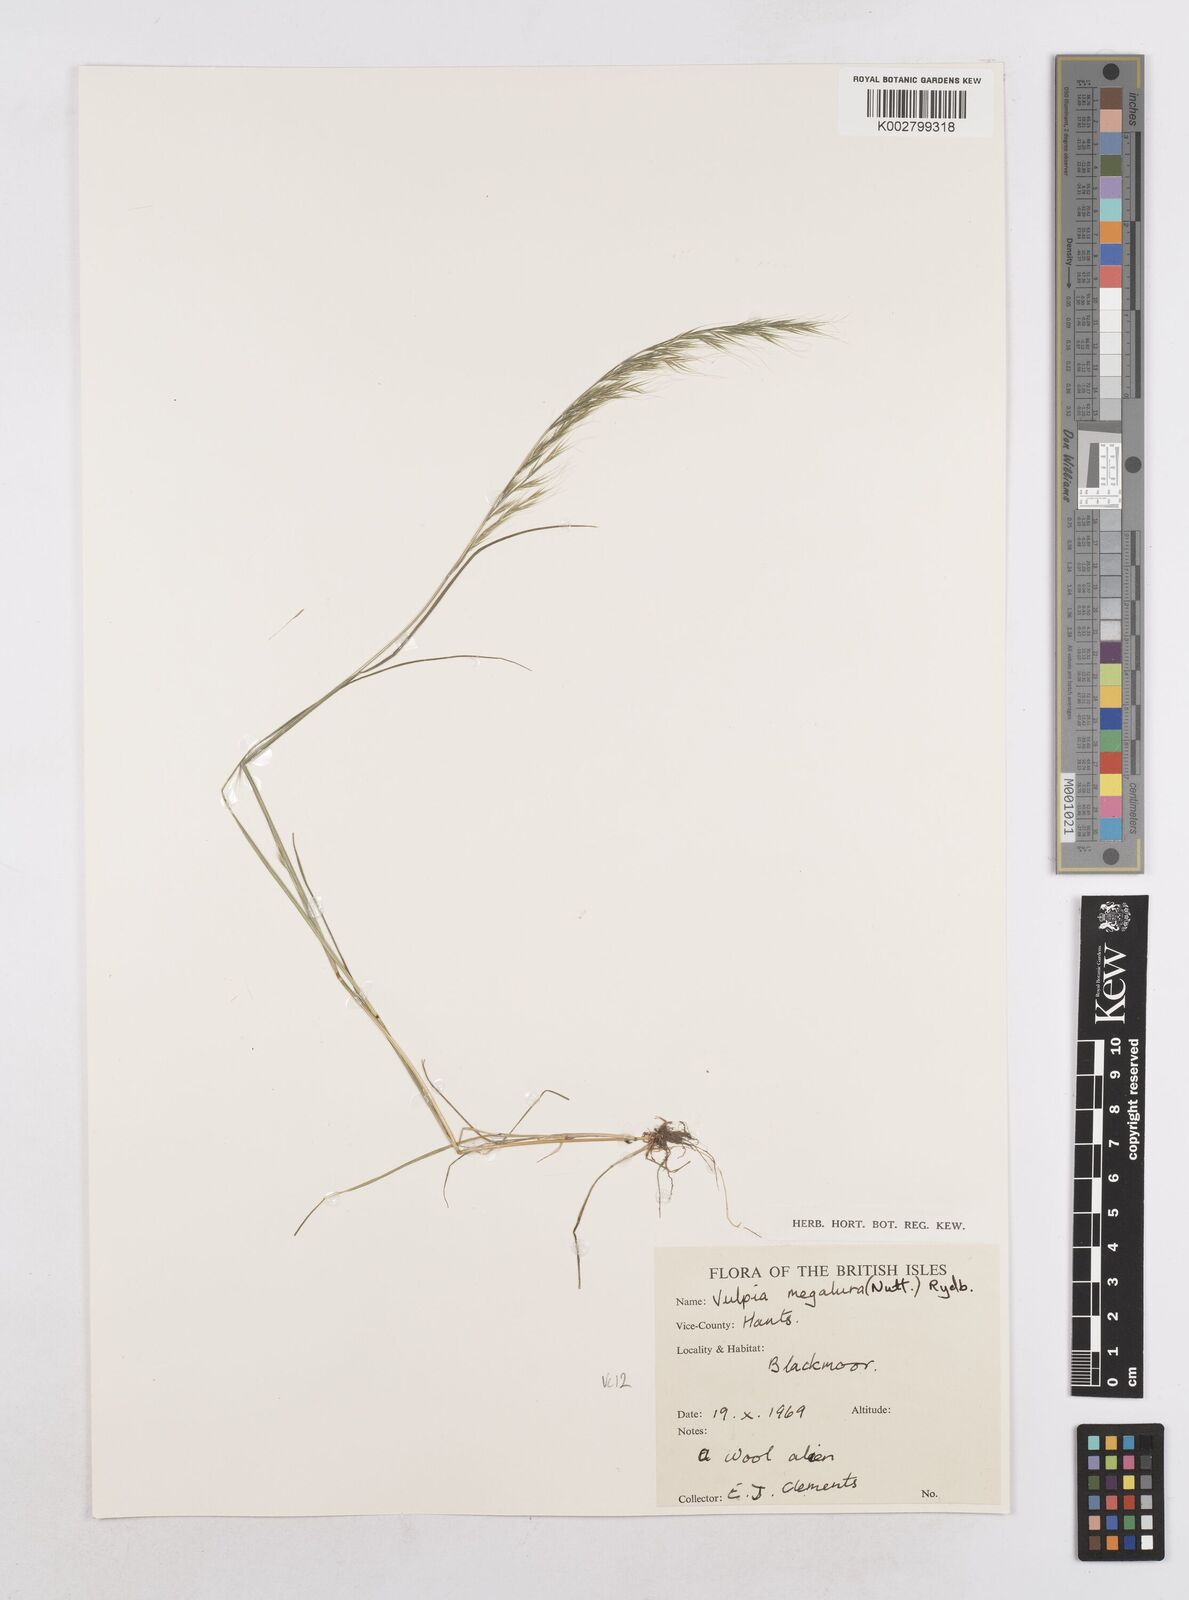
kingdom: Plantae
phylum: Tracheophyta
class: Liliopsida
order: Poales
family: Poaceae
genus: Festuca
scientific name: Festuca myuros
